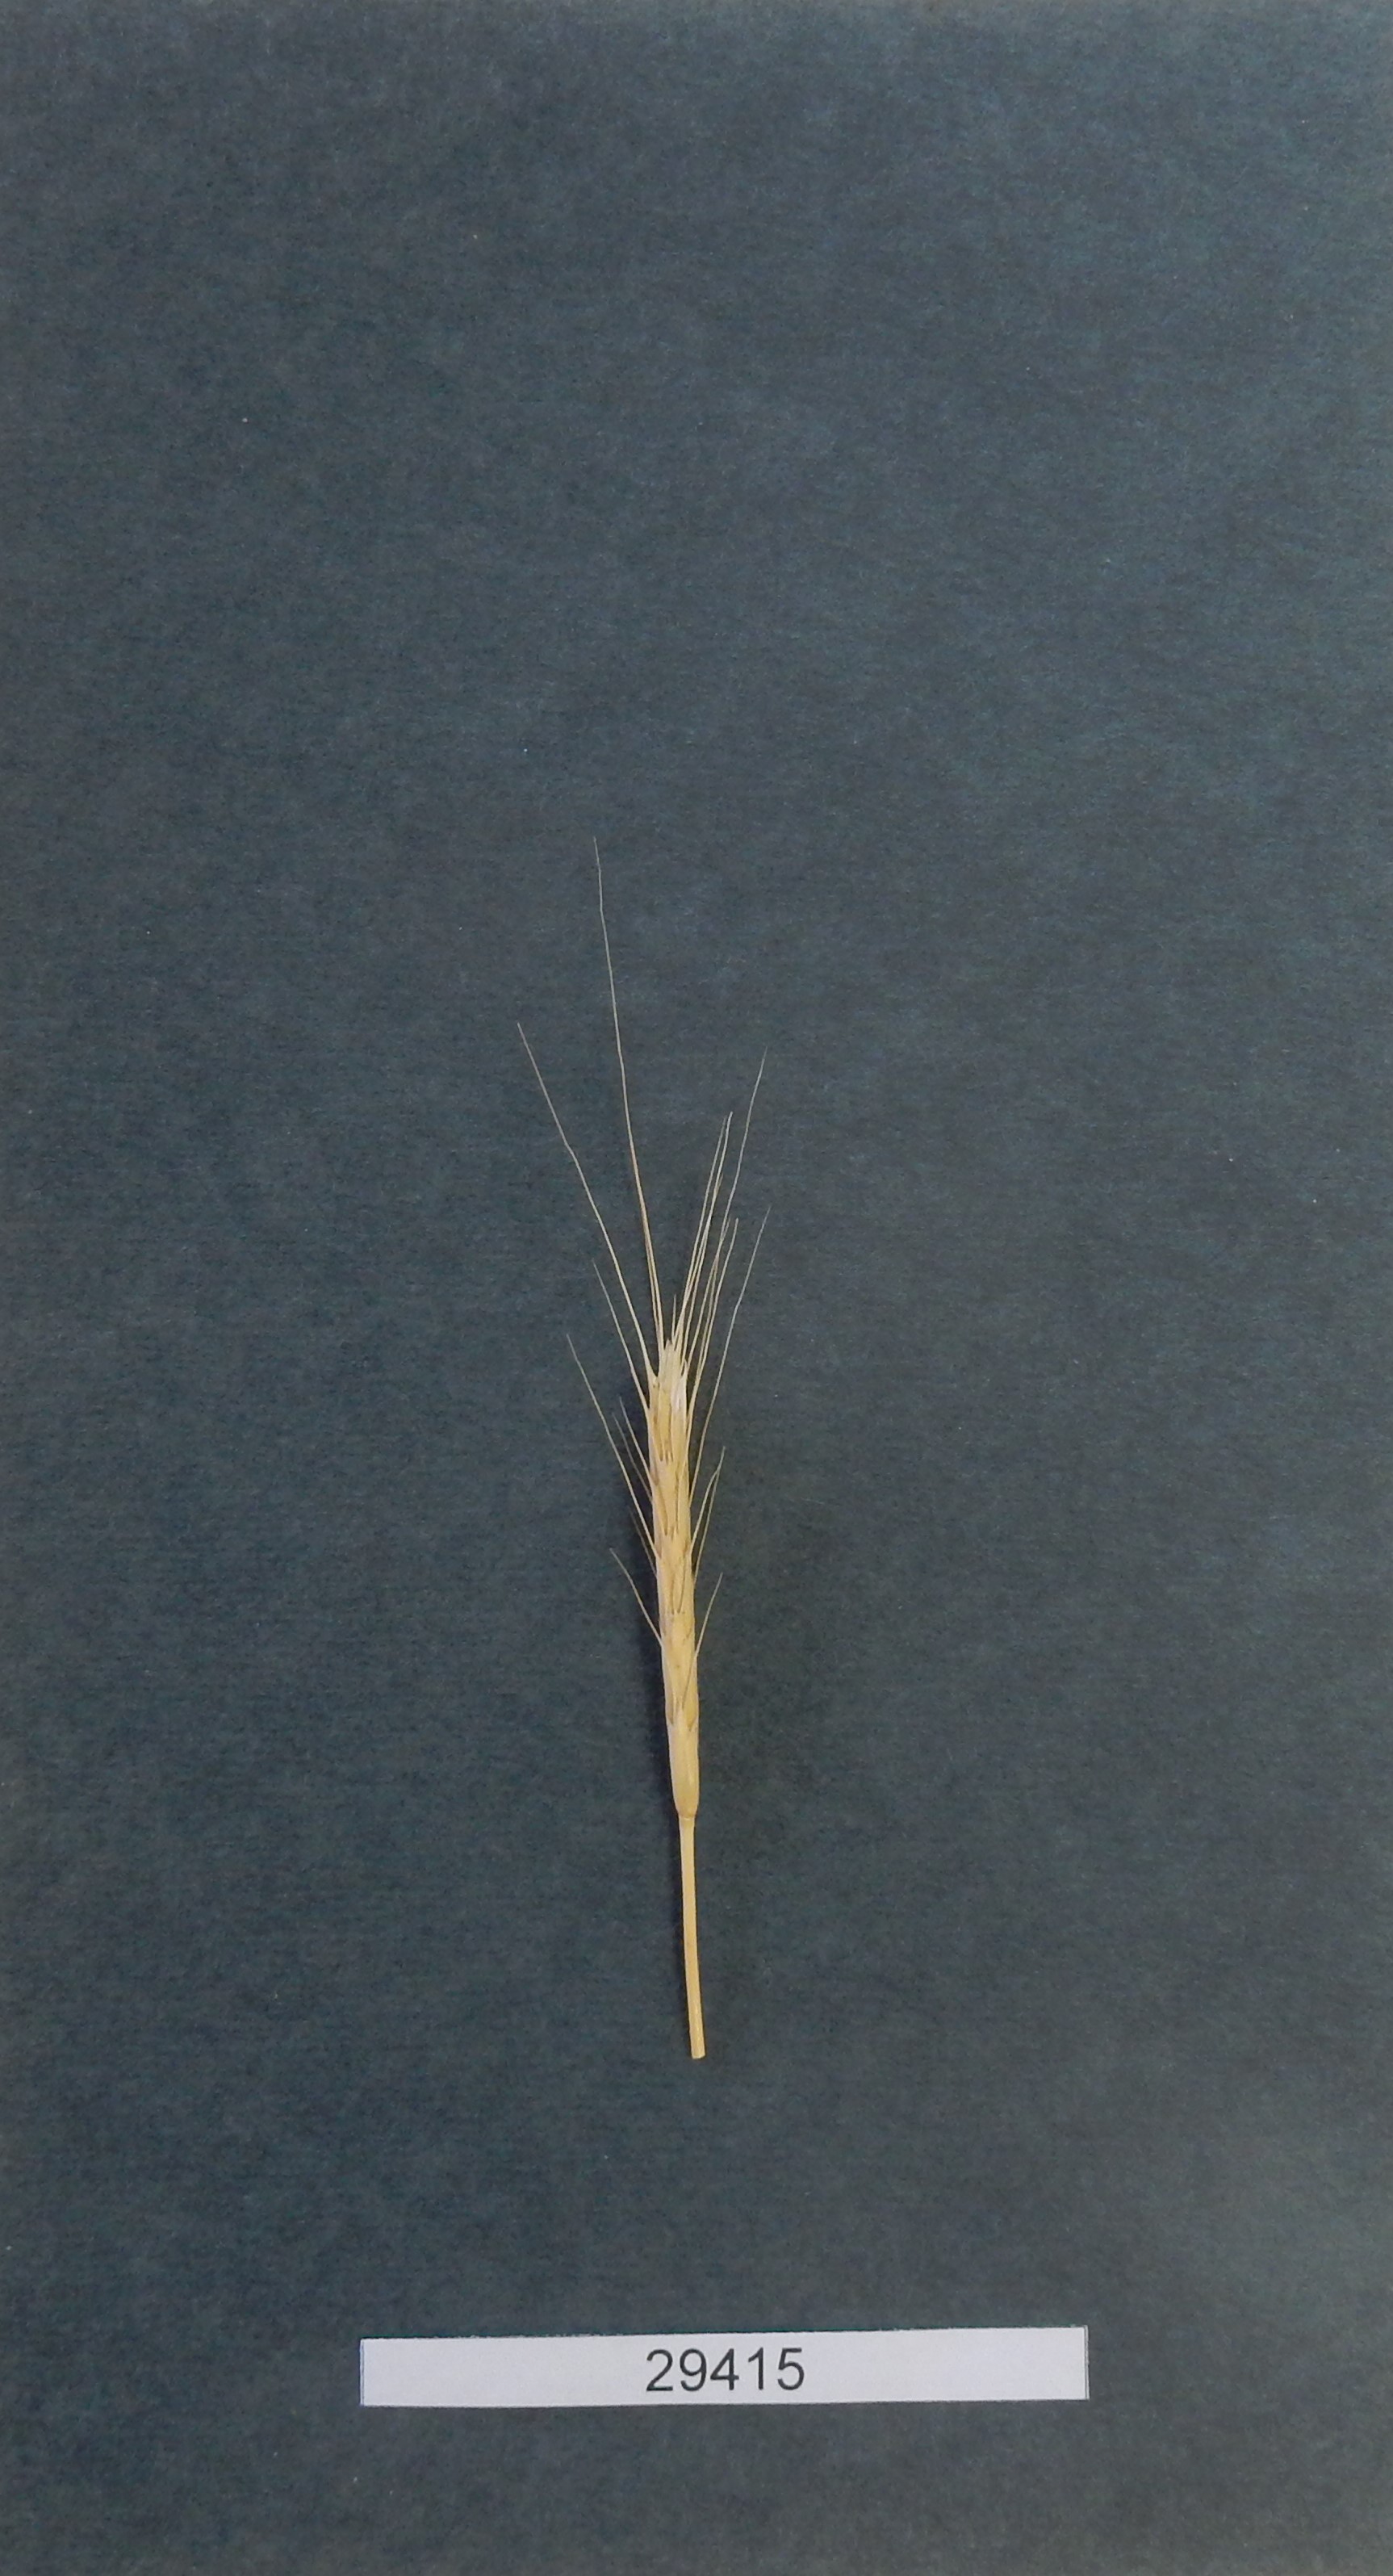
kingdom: Plantae
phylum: Tracheophyta
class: Liliopsida
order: Poales
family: Poaceae
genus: Triticum
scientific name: Triticum urartu
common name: Red wild einkorn
